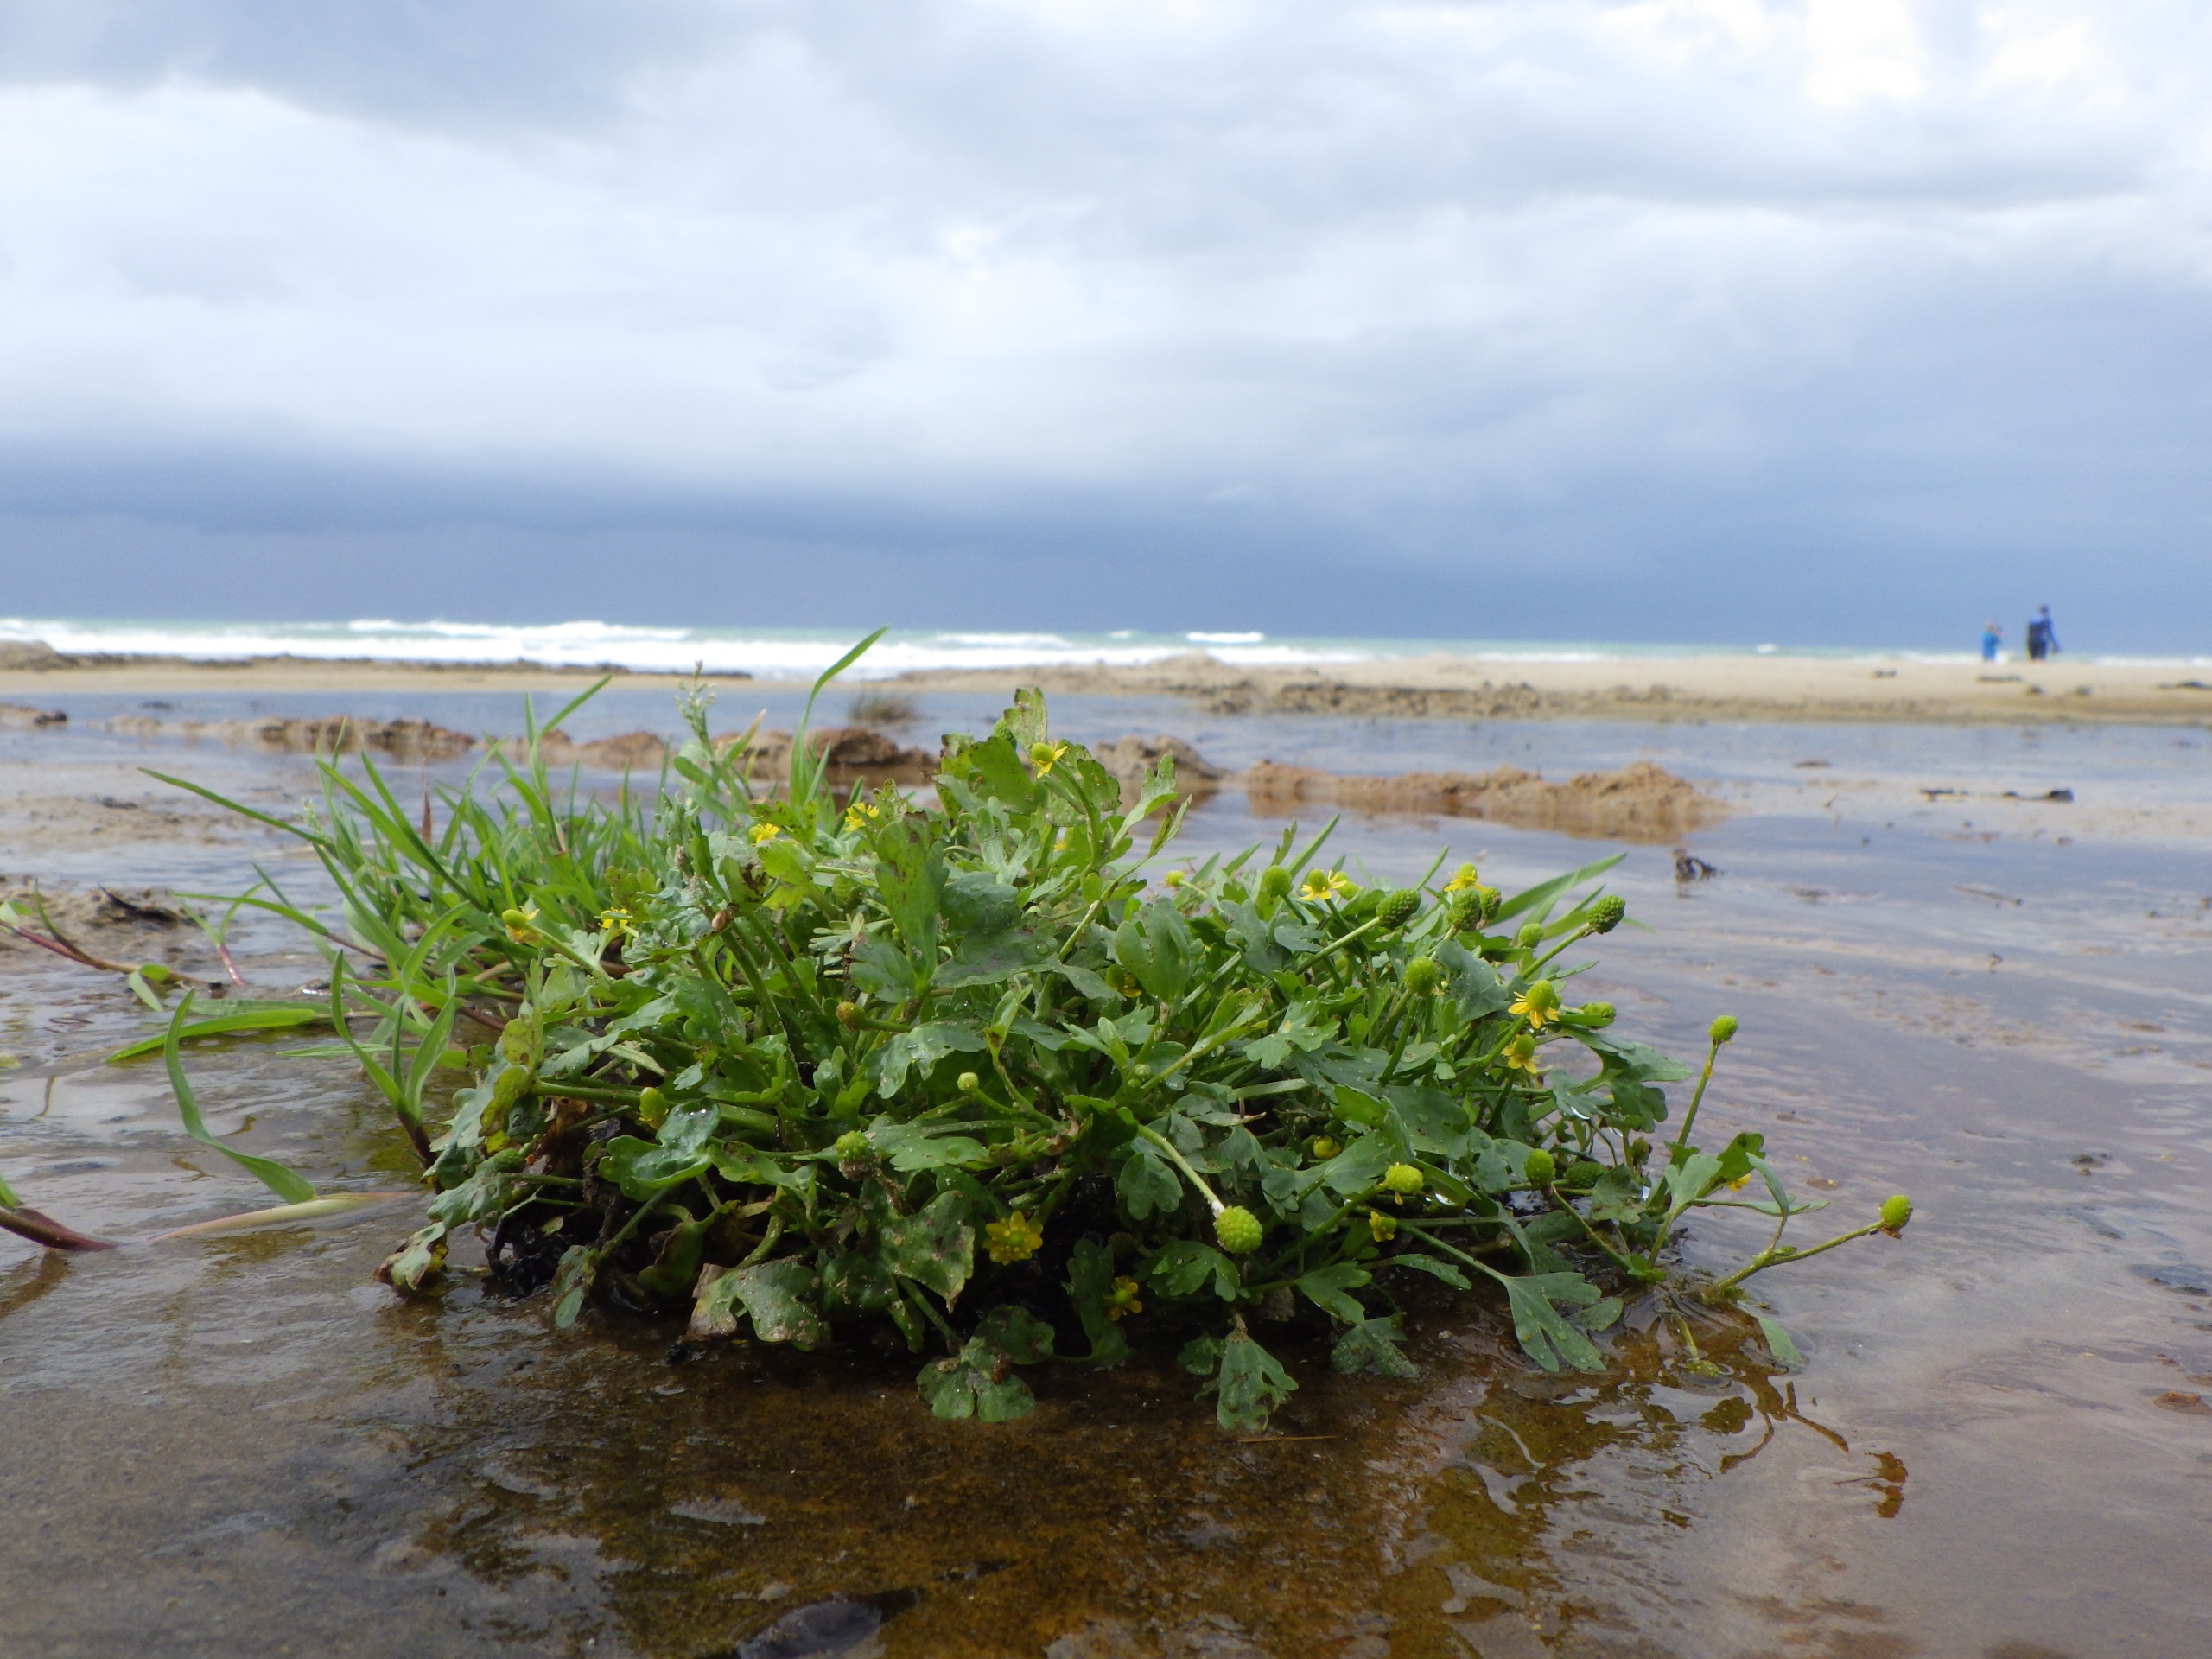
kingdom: Plantae
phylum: Tracheophyta
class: Magnoliopsida
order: Ranunculales
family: Ranunculaceae
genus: Ranunculus
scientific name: Ranunculus sceleratus
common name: Tigger-ranunkel
